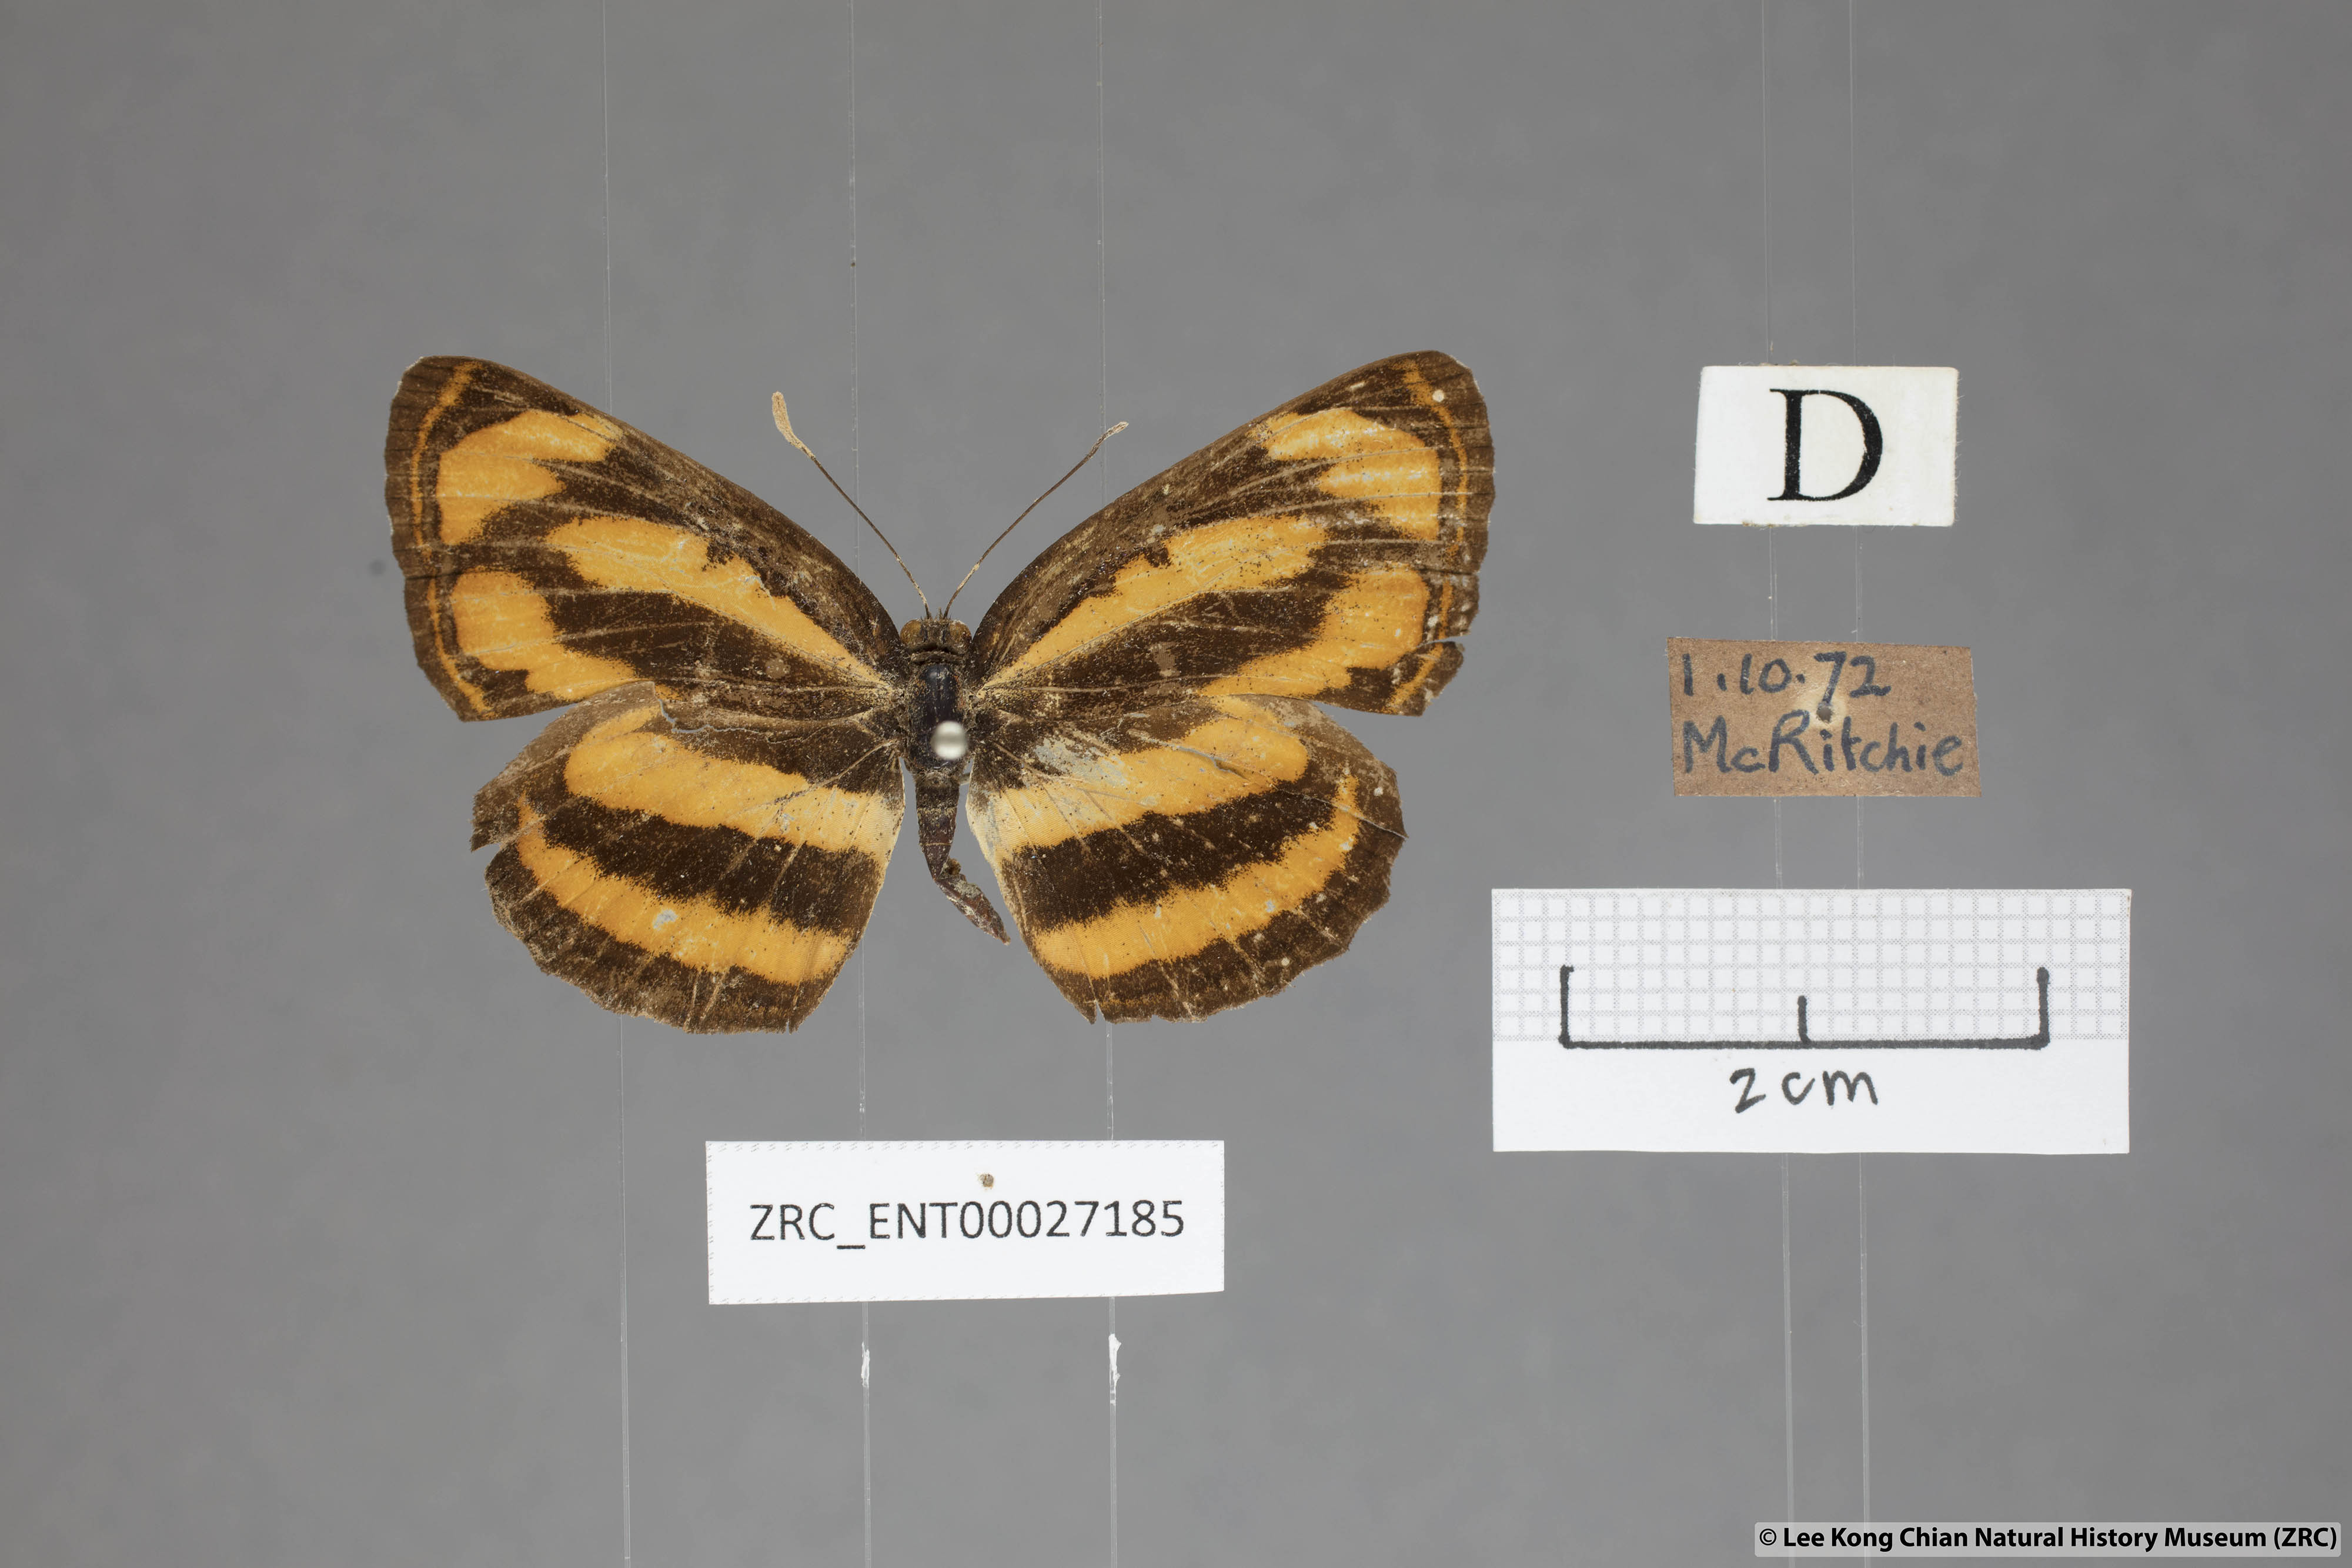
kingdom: Animalia
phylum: Arthropoda
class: Insecta
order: Lepidoptera
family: Nymphalidae
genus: Pantoporia
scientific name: Pantoporia hordonia
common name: Common lascar
